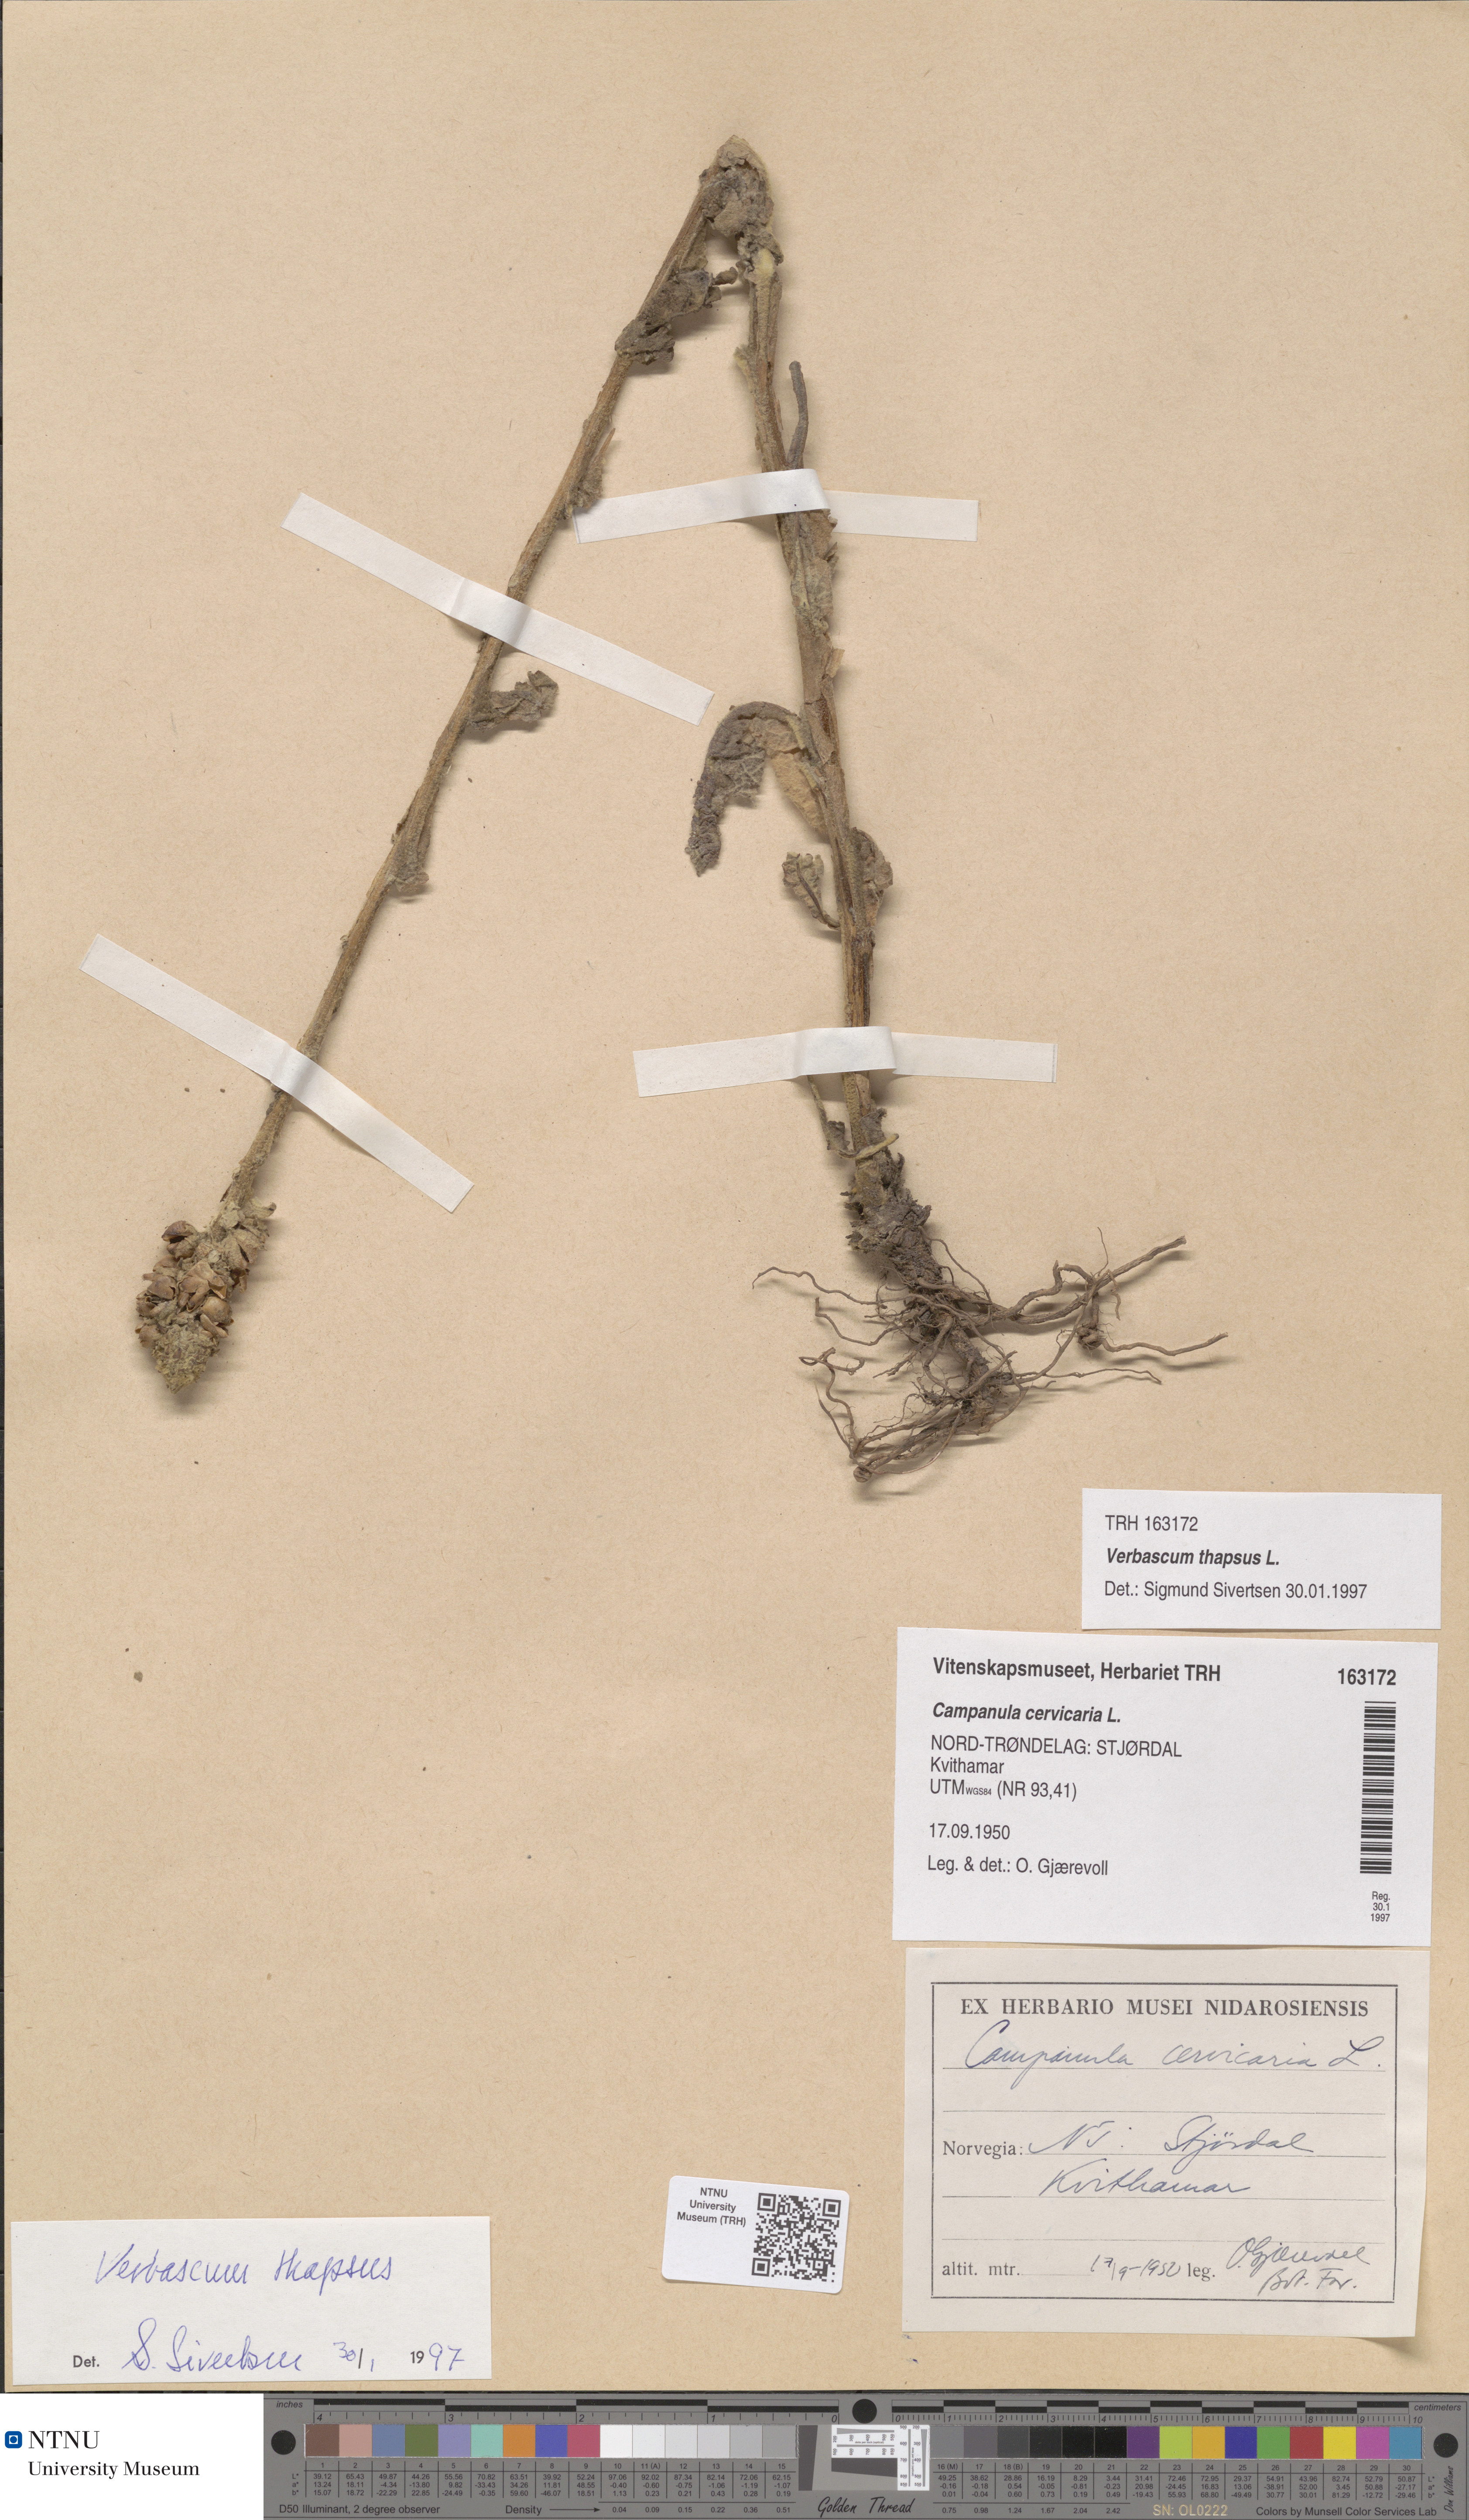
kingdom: Plantae
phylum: Tracheophyta
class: Magnoliopsida
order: Lamiales
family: Scrophulariaceae
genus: Verbascum
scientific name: Verbascum thapsus
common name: Common mullein
